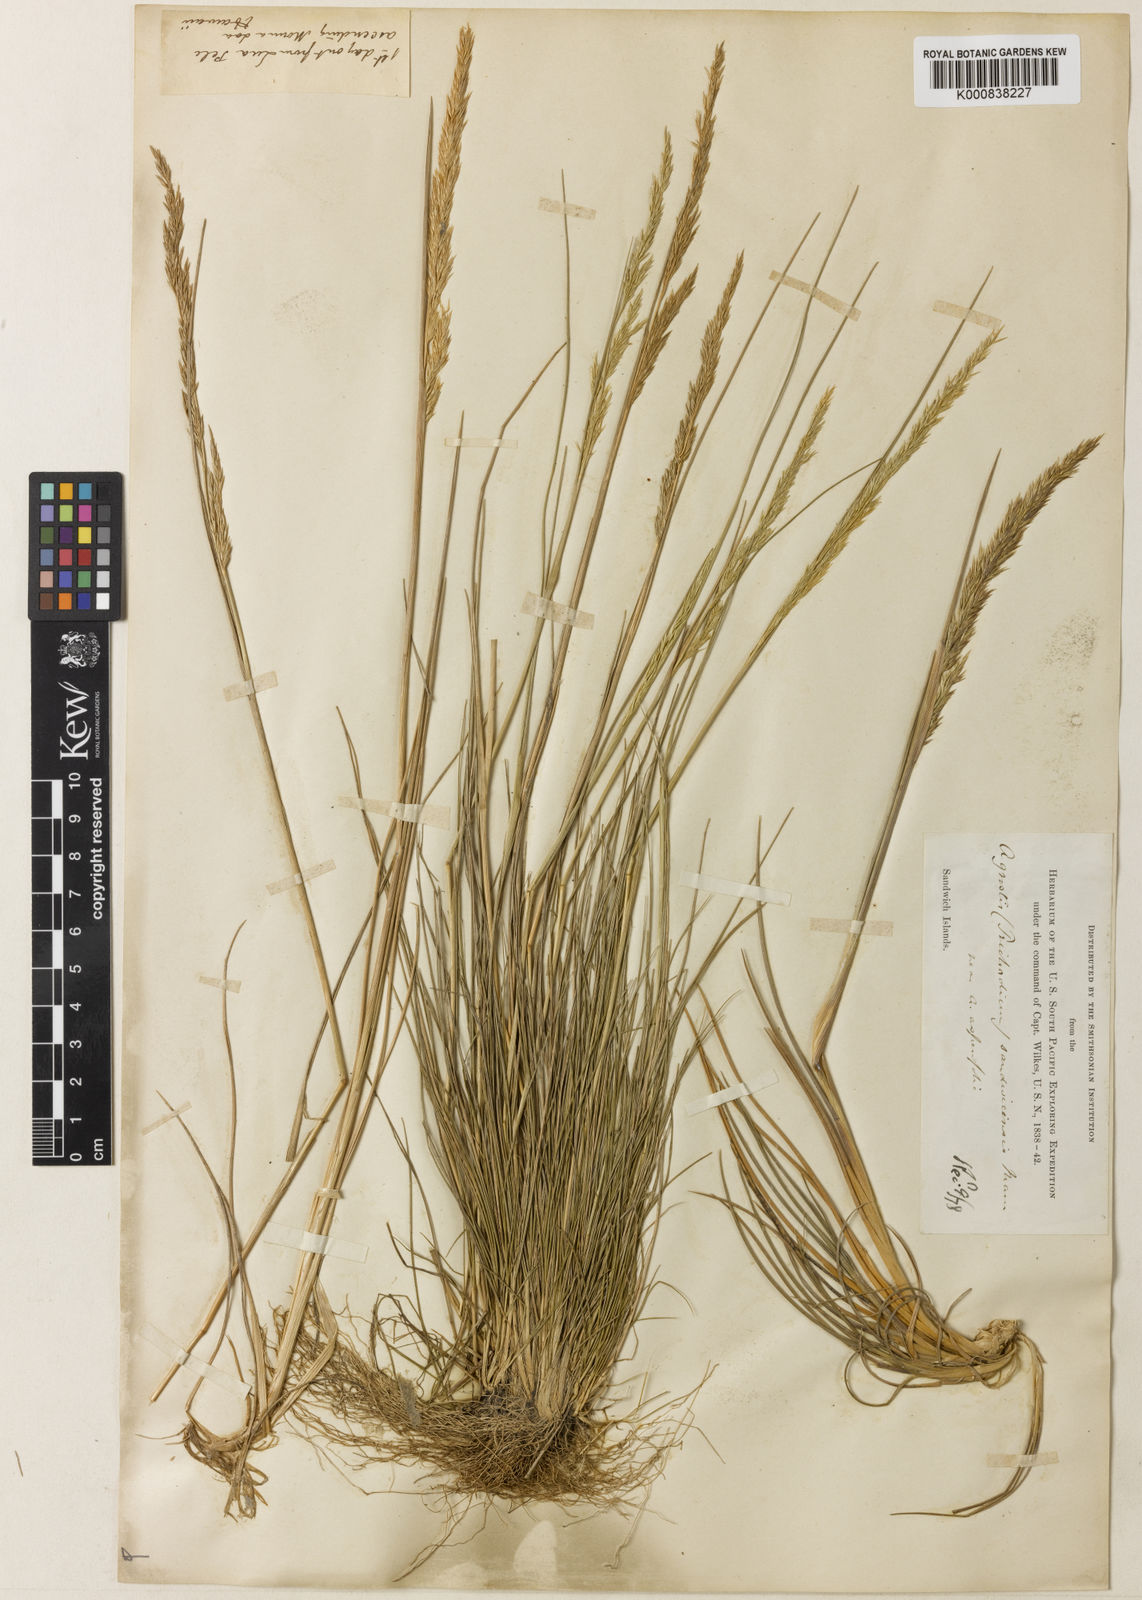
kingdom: Plantae
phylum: Tracheophyta
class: Liliopsida
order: Poales
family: Poaceae
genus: Agrostis
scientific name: Agrostis sandwicensis
